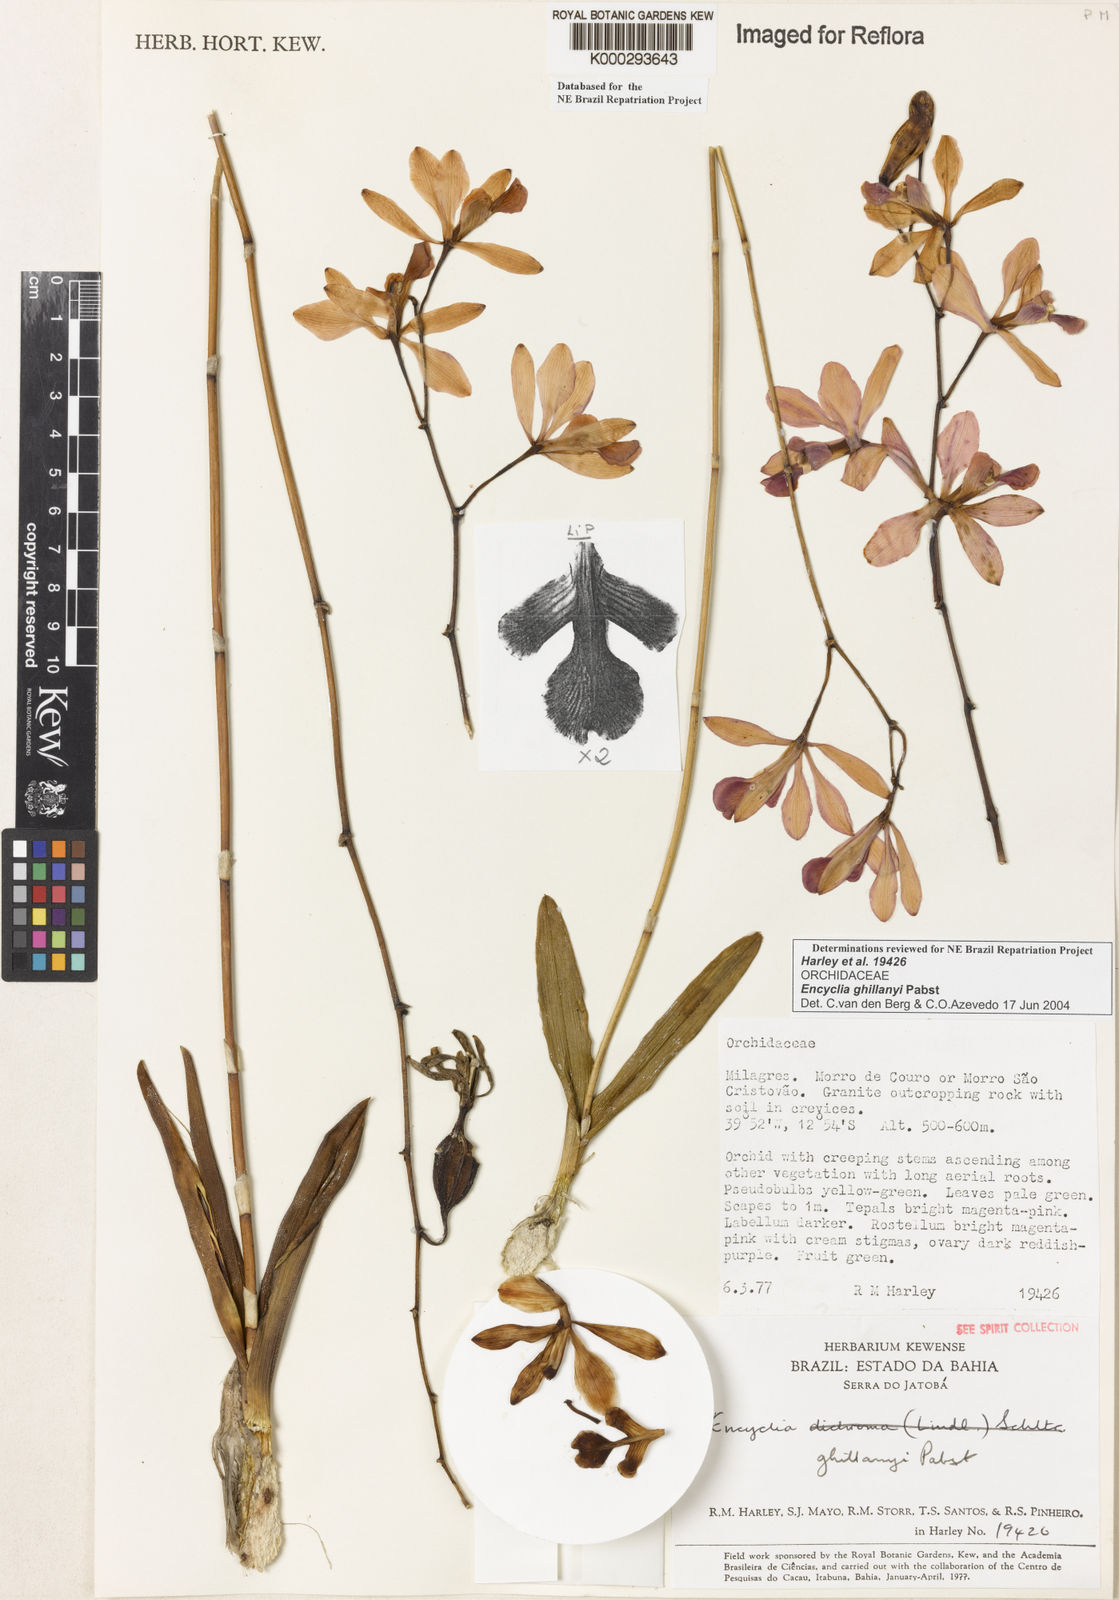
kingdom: Plantae
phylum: Tracheophyta
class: Liliopsida
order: Asparagales
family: Orchidaceae
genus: Encyclia
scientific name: Encyclia jenischiana
